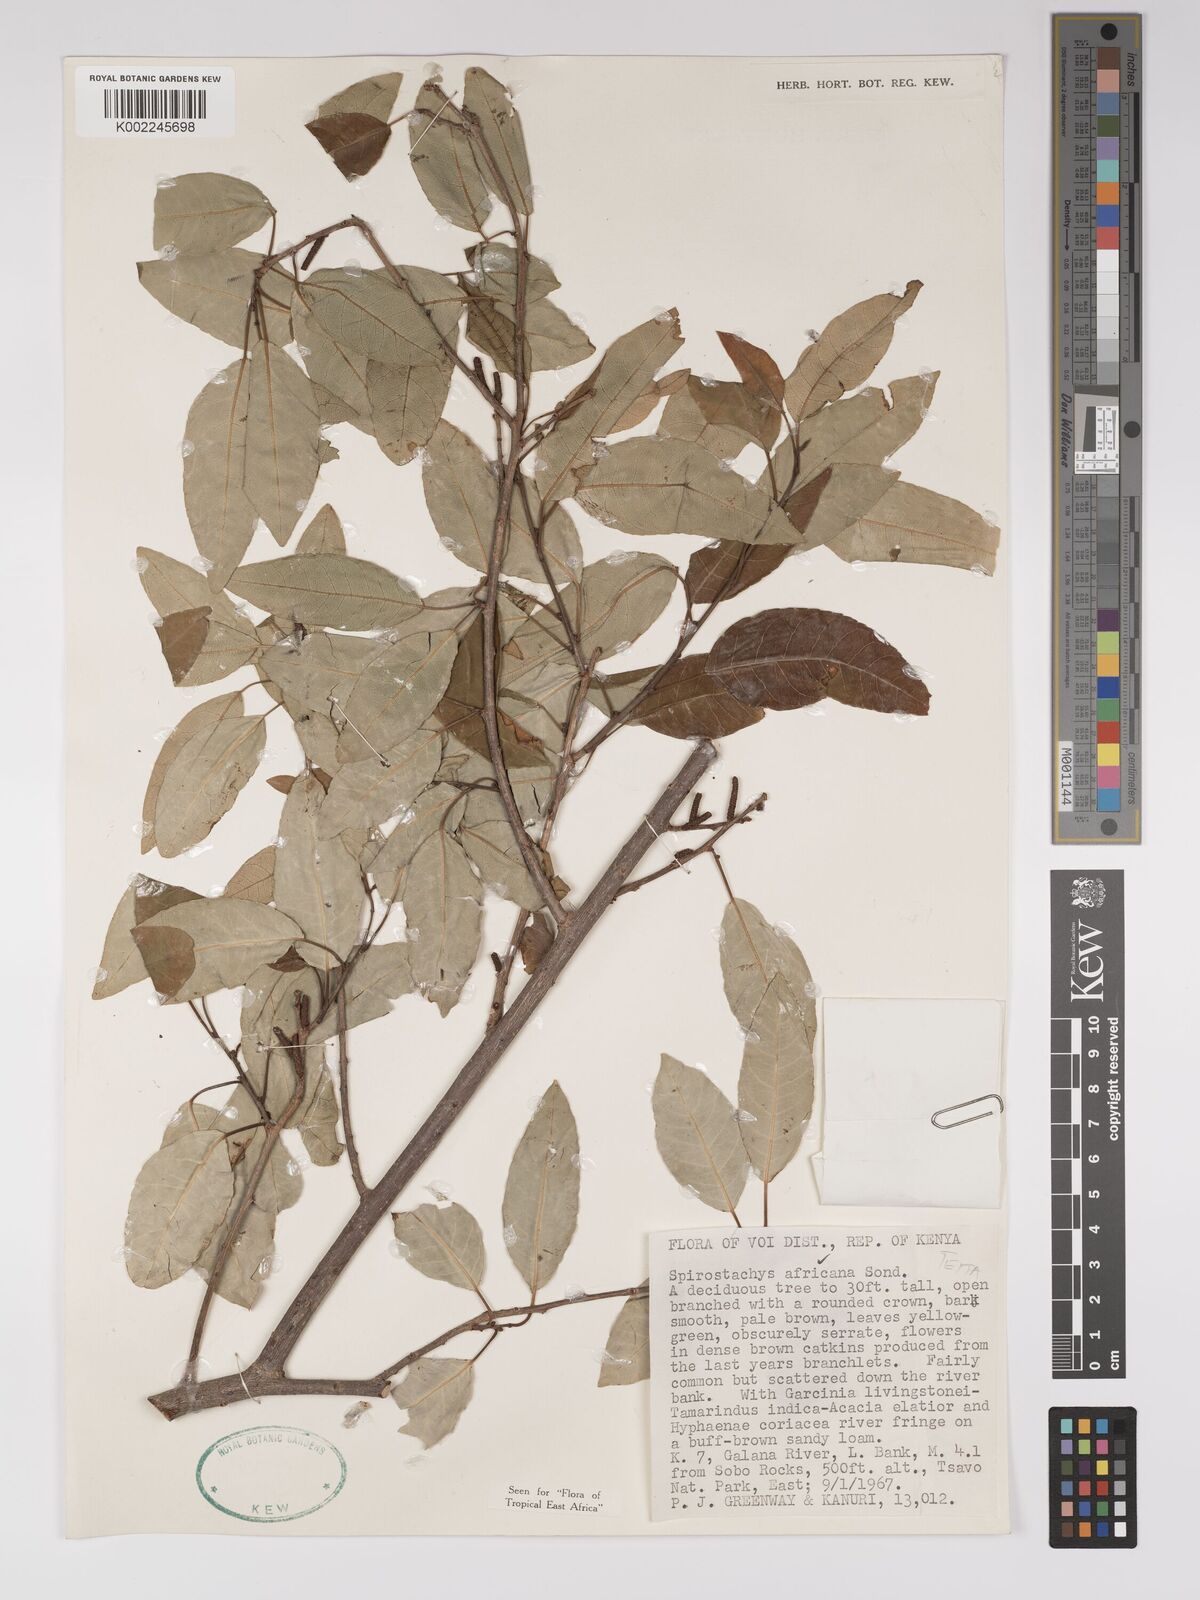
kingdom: Plantae
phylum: Tracheophyta
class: Magnoliopsida
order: Malpighiales
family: Euphorbiaceae
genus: Spirostachys
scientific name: Spirostachys africana
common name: Tamboti
